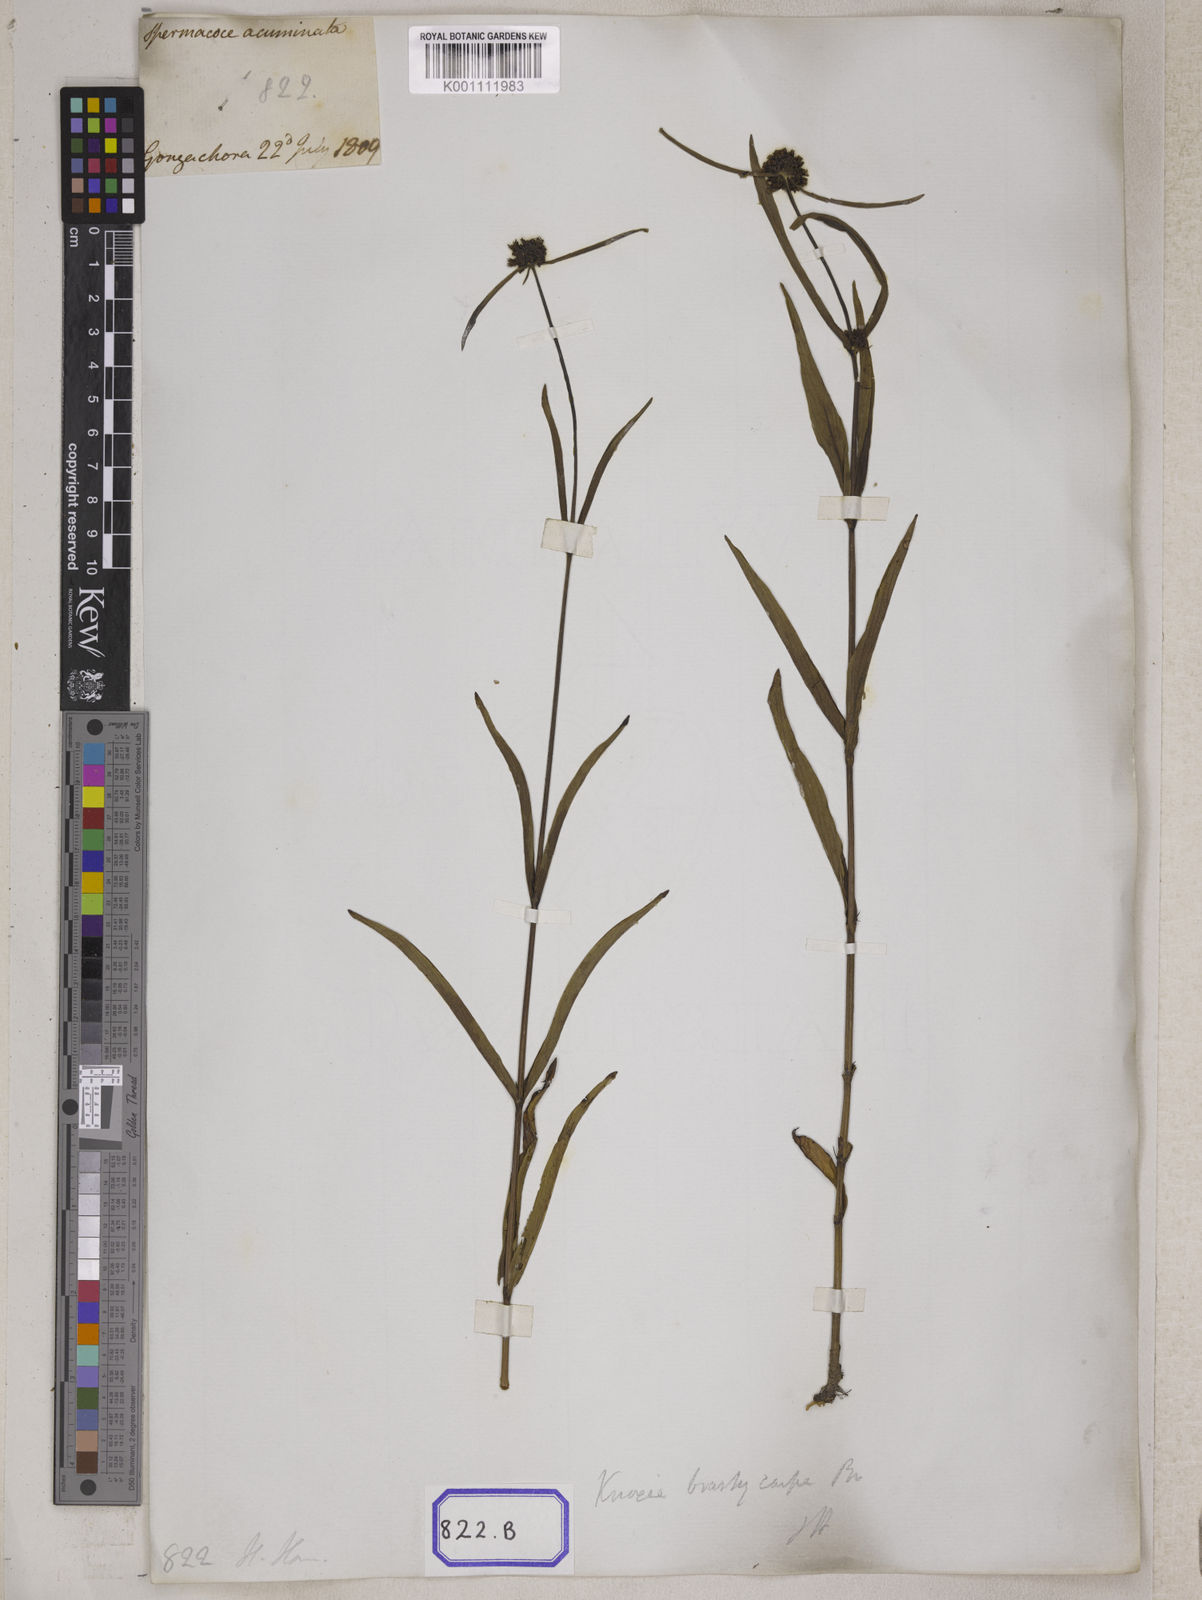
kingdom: Plantae
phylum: Tracheophyta
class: Magnoliopsida
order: Gentianales
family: Rubiaceae
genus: Spermacoce
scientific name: Spermacoce
